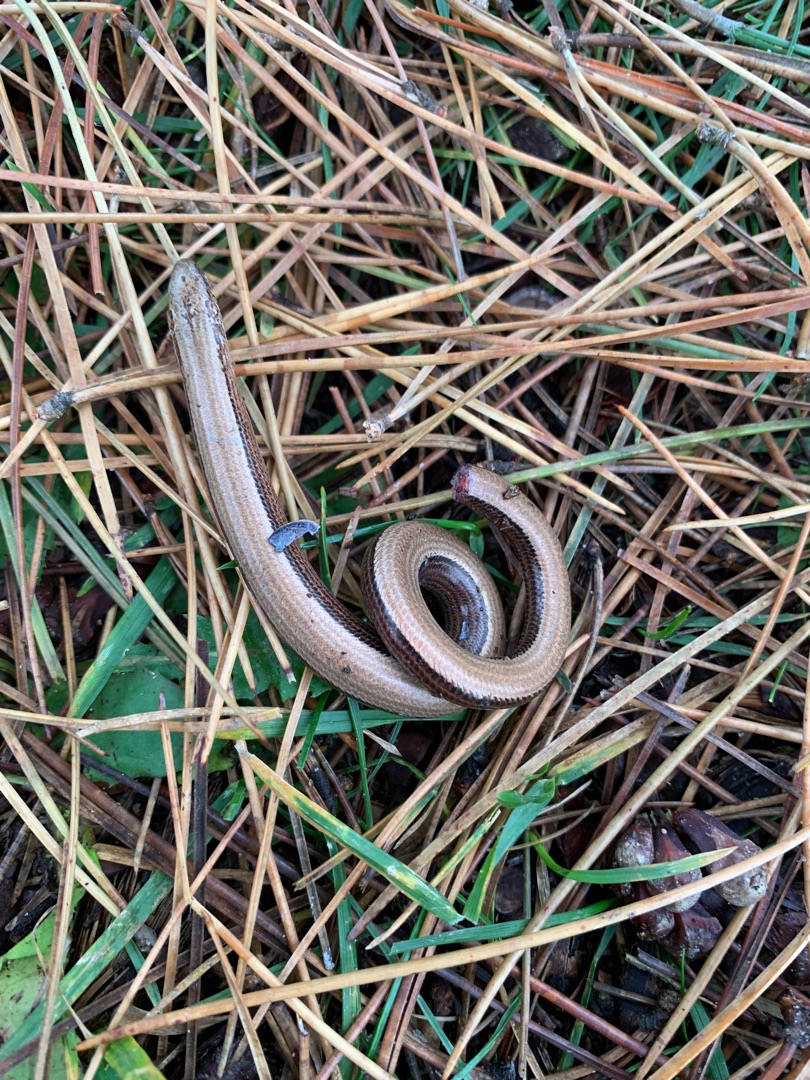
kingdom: Animalia
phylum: Chordata
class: Squamata
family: Anguidae
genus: Anguis
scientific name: Anguis fragilis
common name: Stålorm
